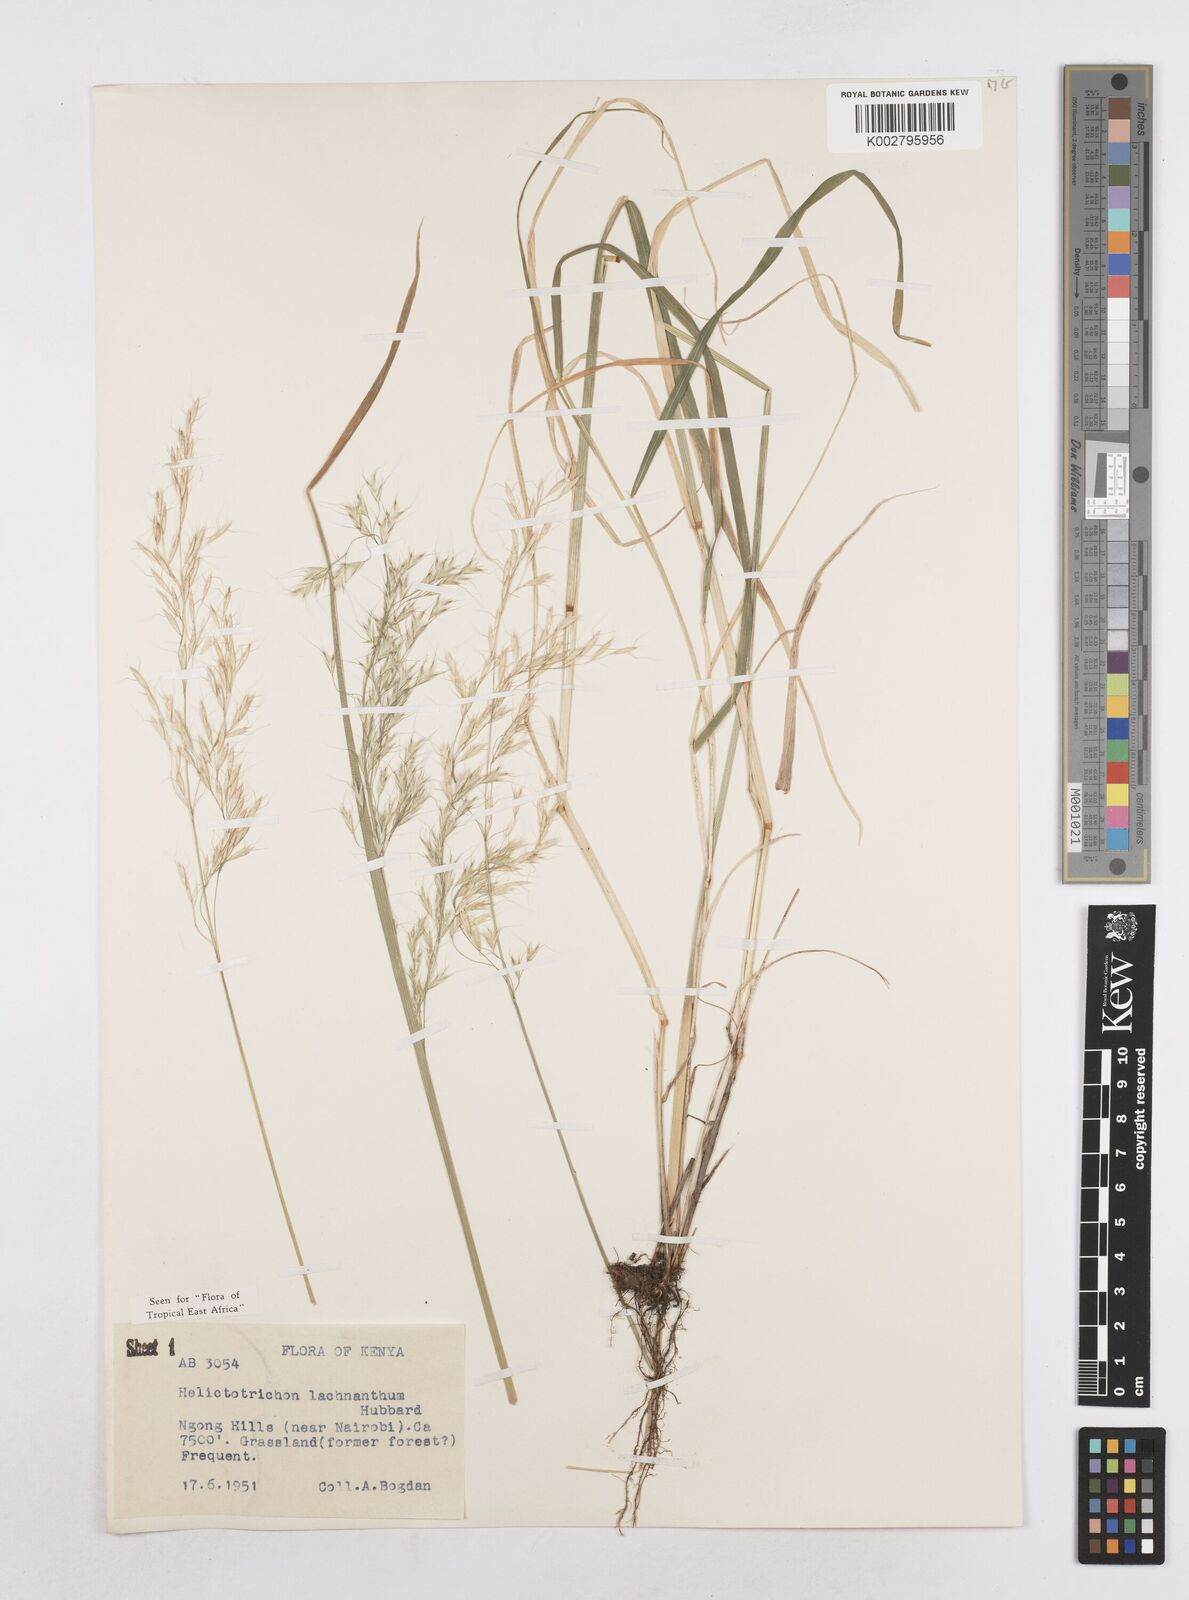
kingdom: Plantae
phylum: Tracheophyta
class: Liliopsida
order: Poales
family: Poaceae
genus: Trisetopsis
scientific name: Trisetopsis lachnantha
